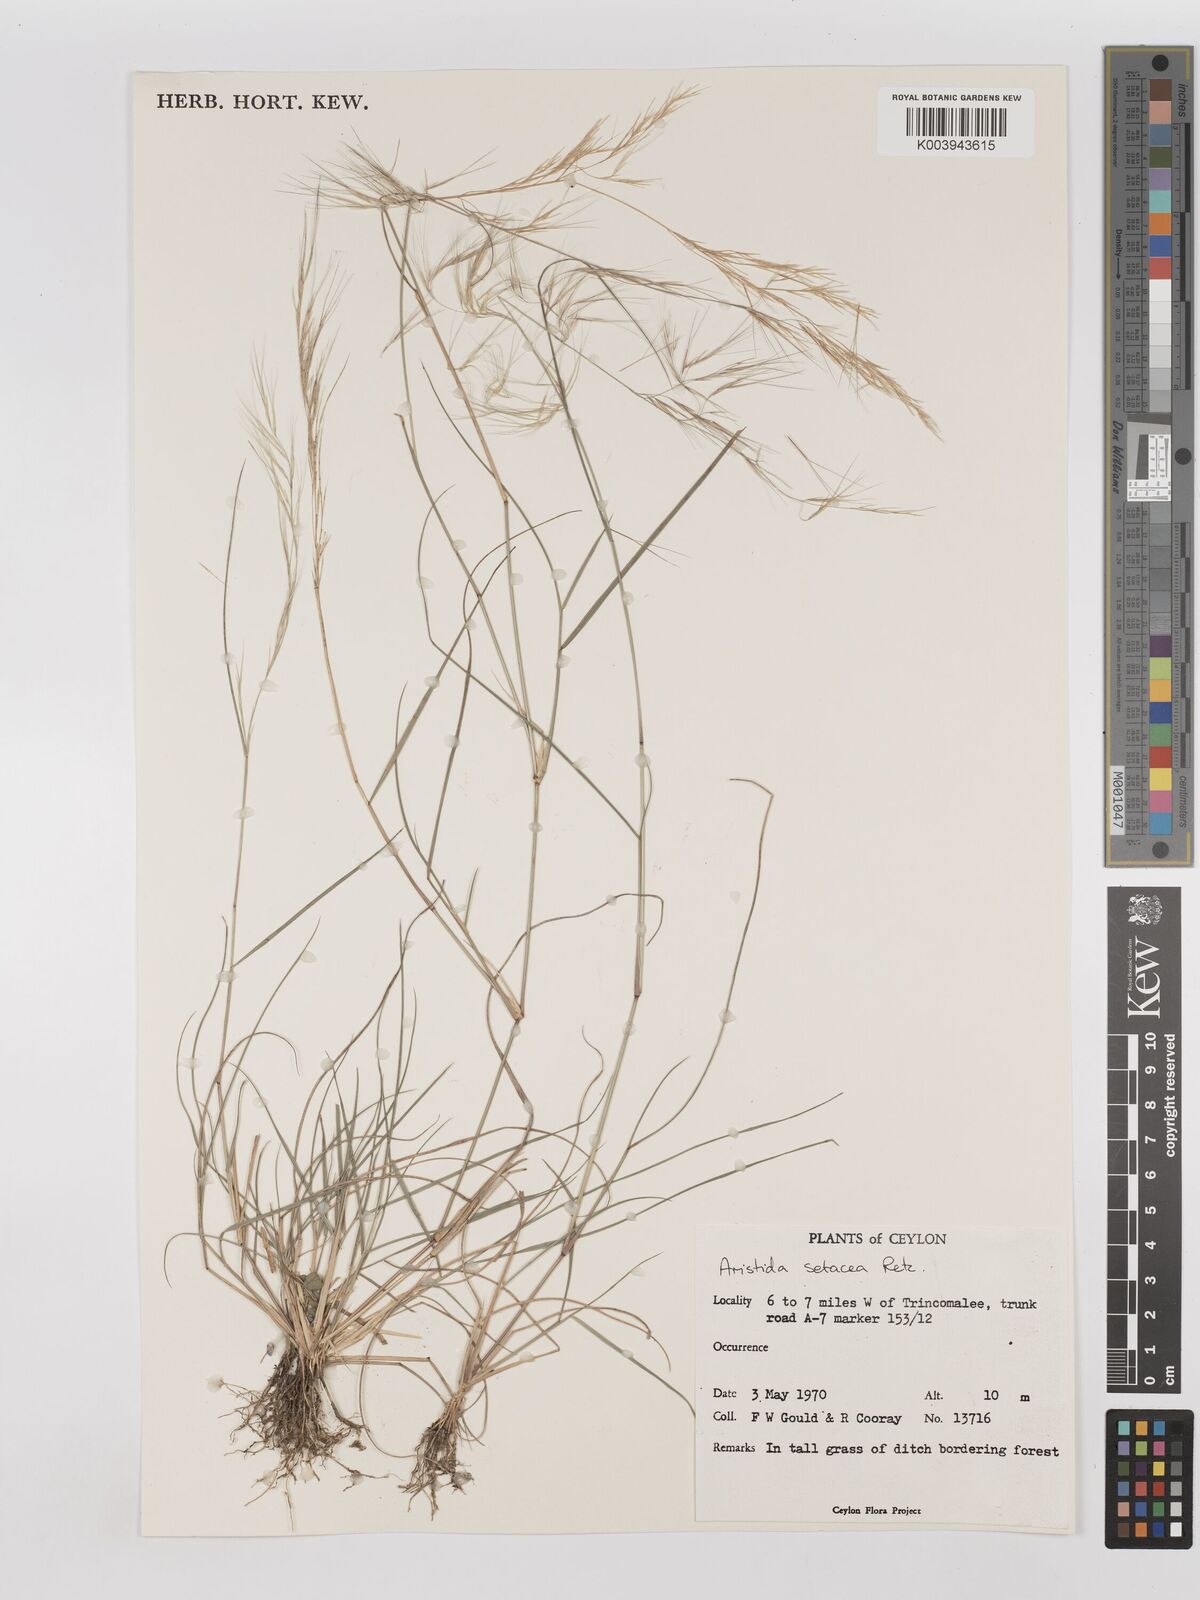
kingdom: Plantae
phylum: Tracheophyta
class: Liliopsida
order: Poales
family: Poaceae
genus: Aristida
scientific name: Aristida setacea
